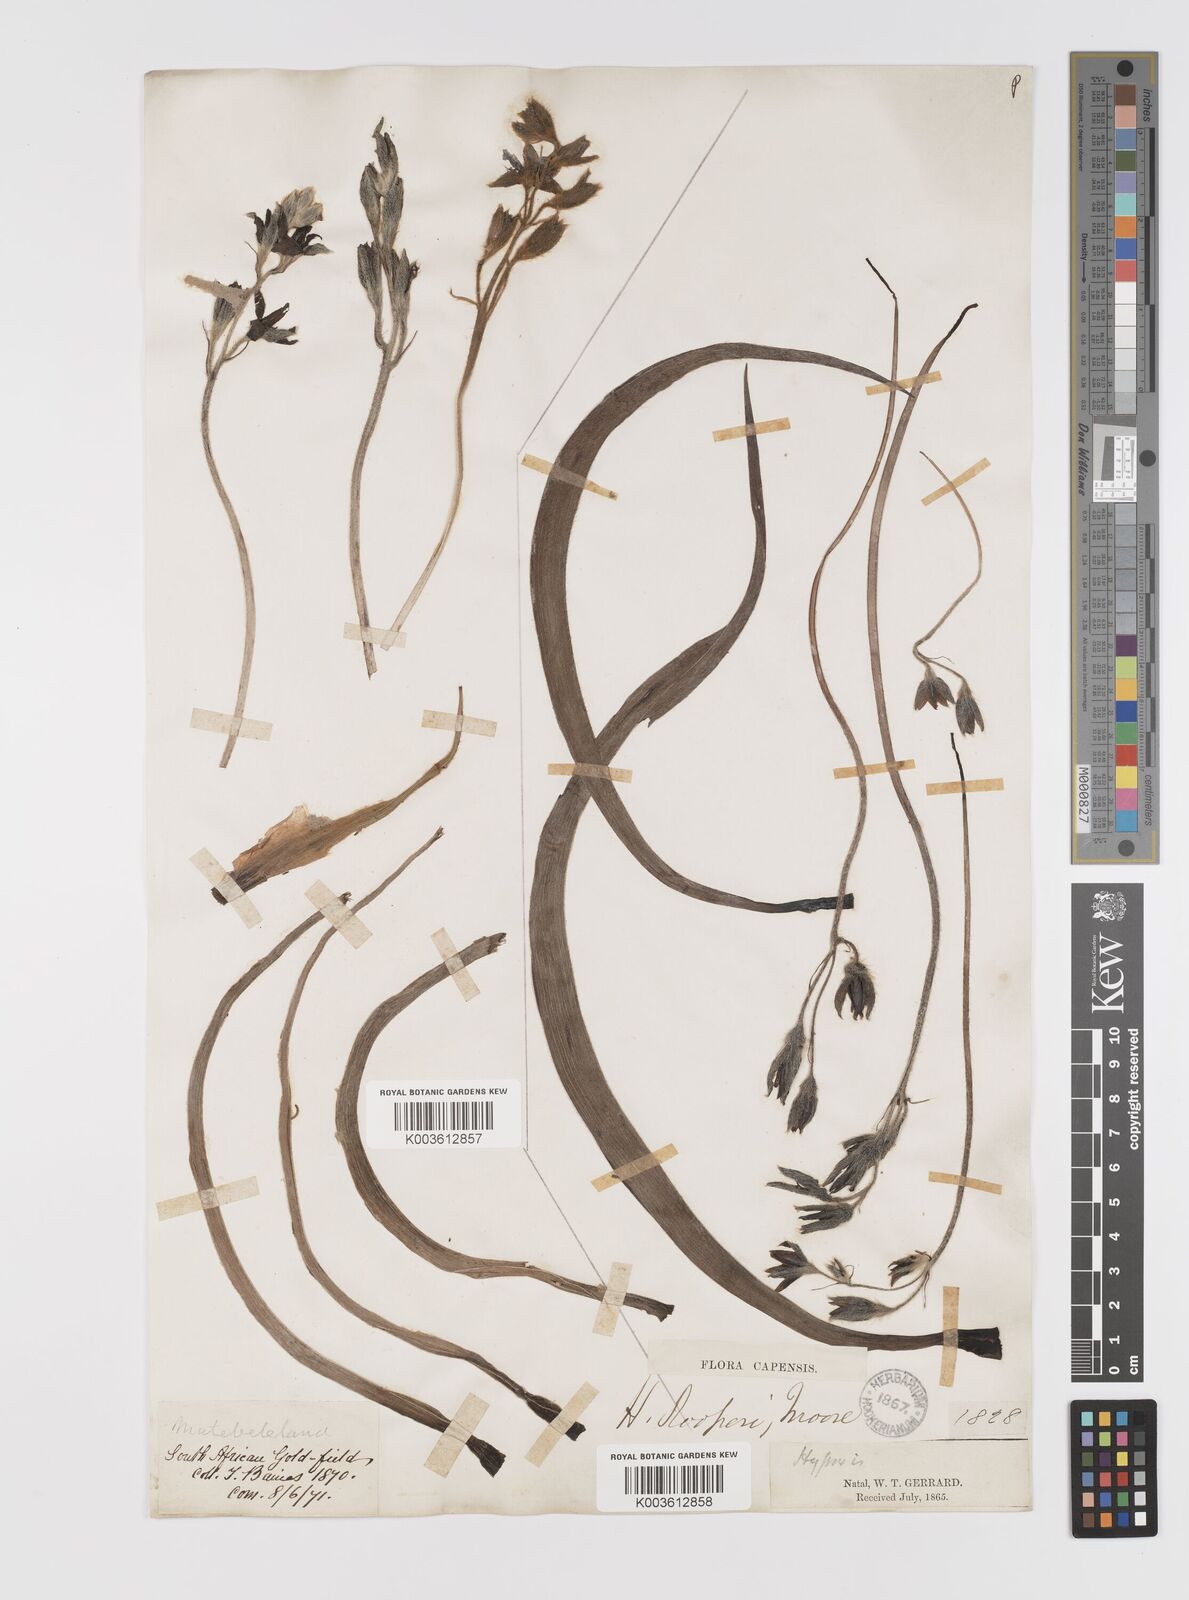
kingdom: Plantae
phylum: Tracheophyta
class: Liliopsida
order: Asparagales
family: Hypoxidaceae
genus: Hypoxis
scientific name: Hypoxis hemerocallidea
